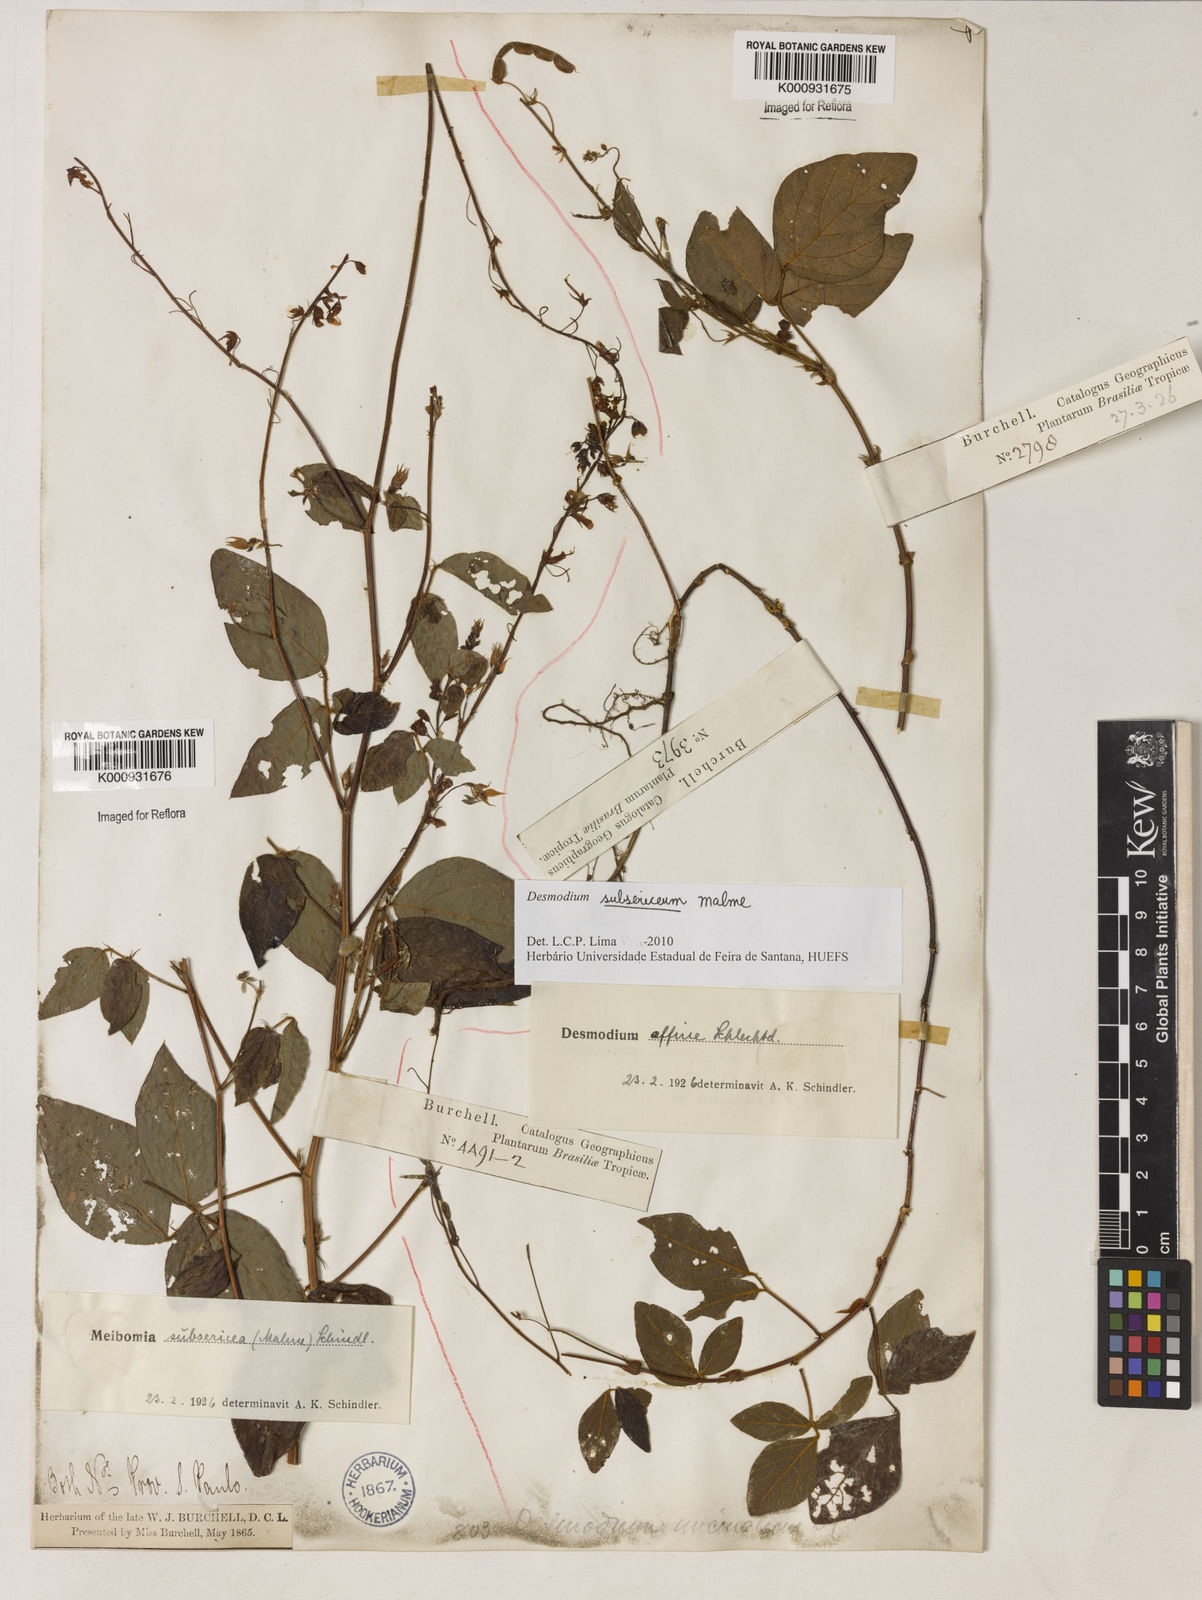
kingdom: Plantae
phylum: Tracheophyta
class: Magnoliopsida
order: Fabales
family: Fabaceae
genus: Desmodium
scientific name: Desmodium subsericeum
